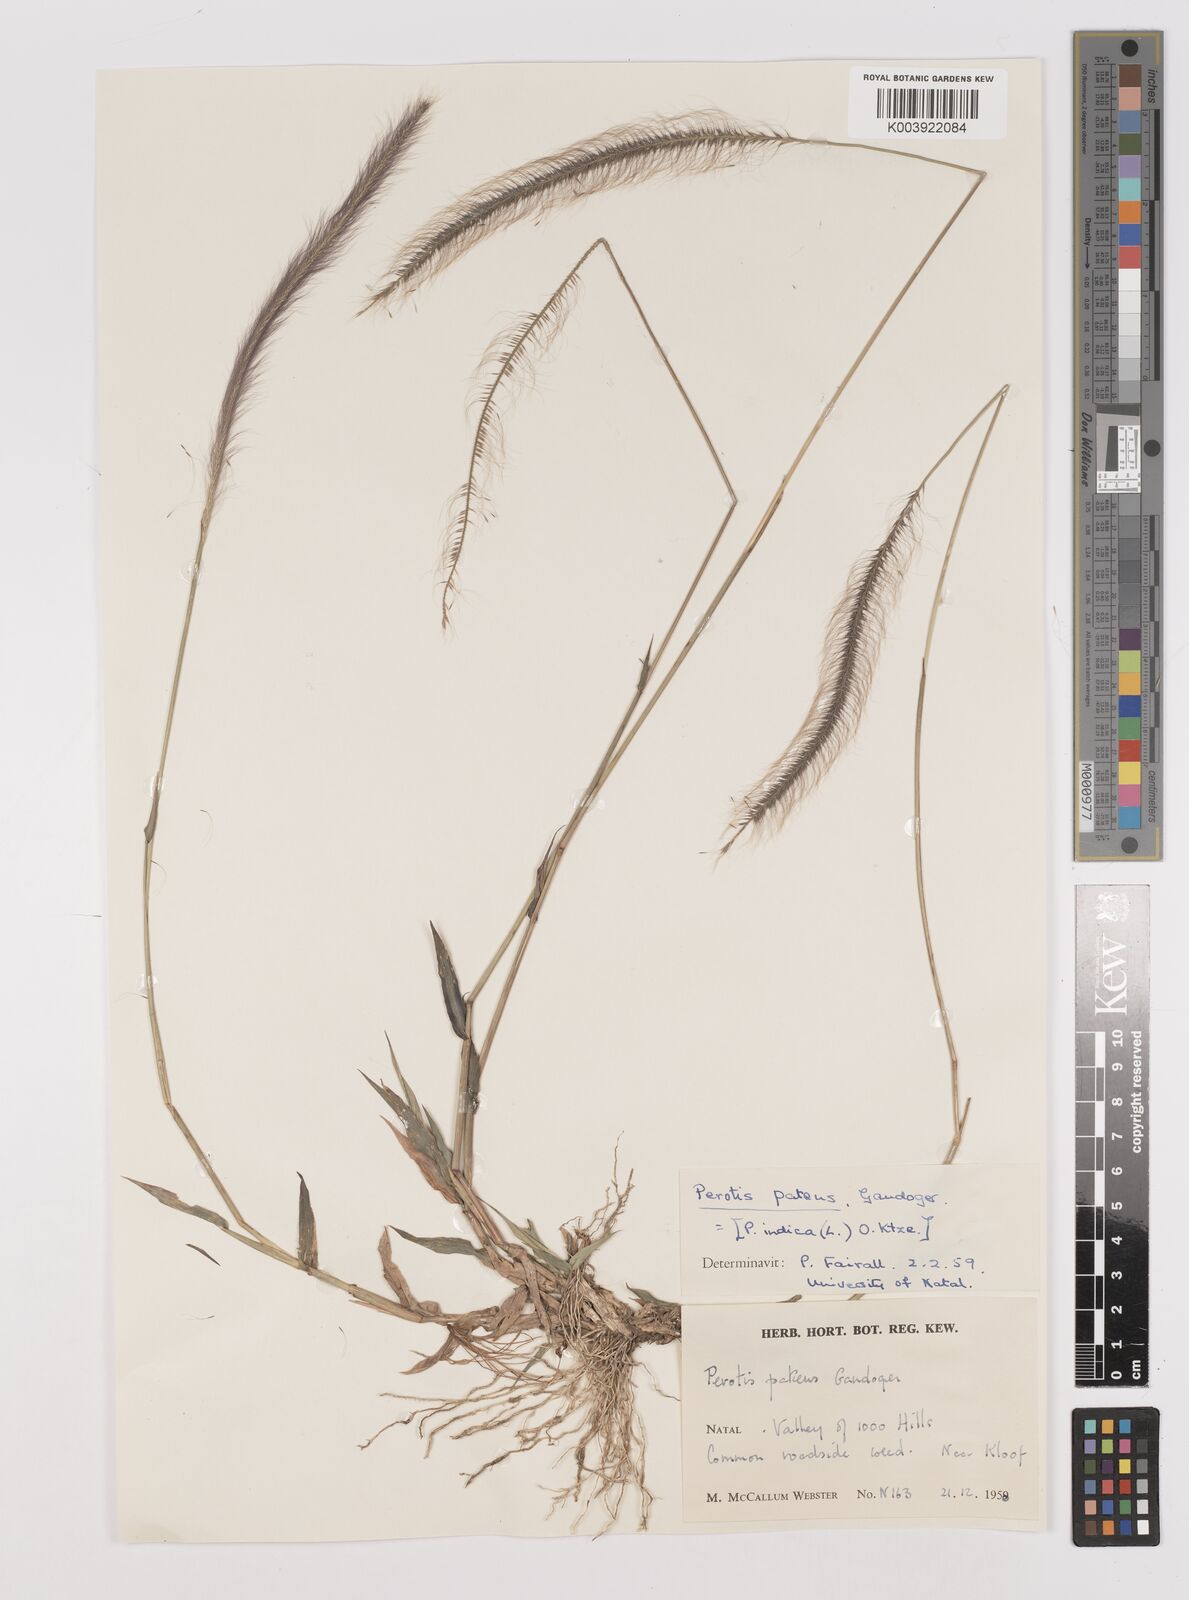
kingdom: Plantae
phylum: Tracheophyta
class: Liliopsida
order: Poales
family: Poaceae
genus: Perotis
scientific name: Perotis patens
